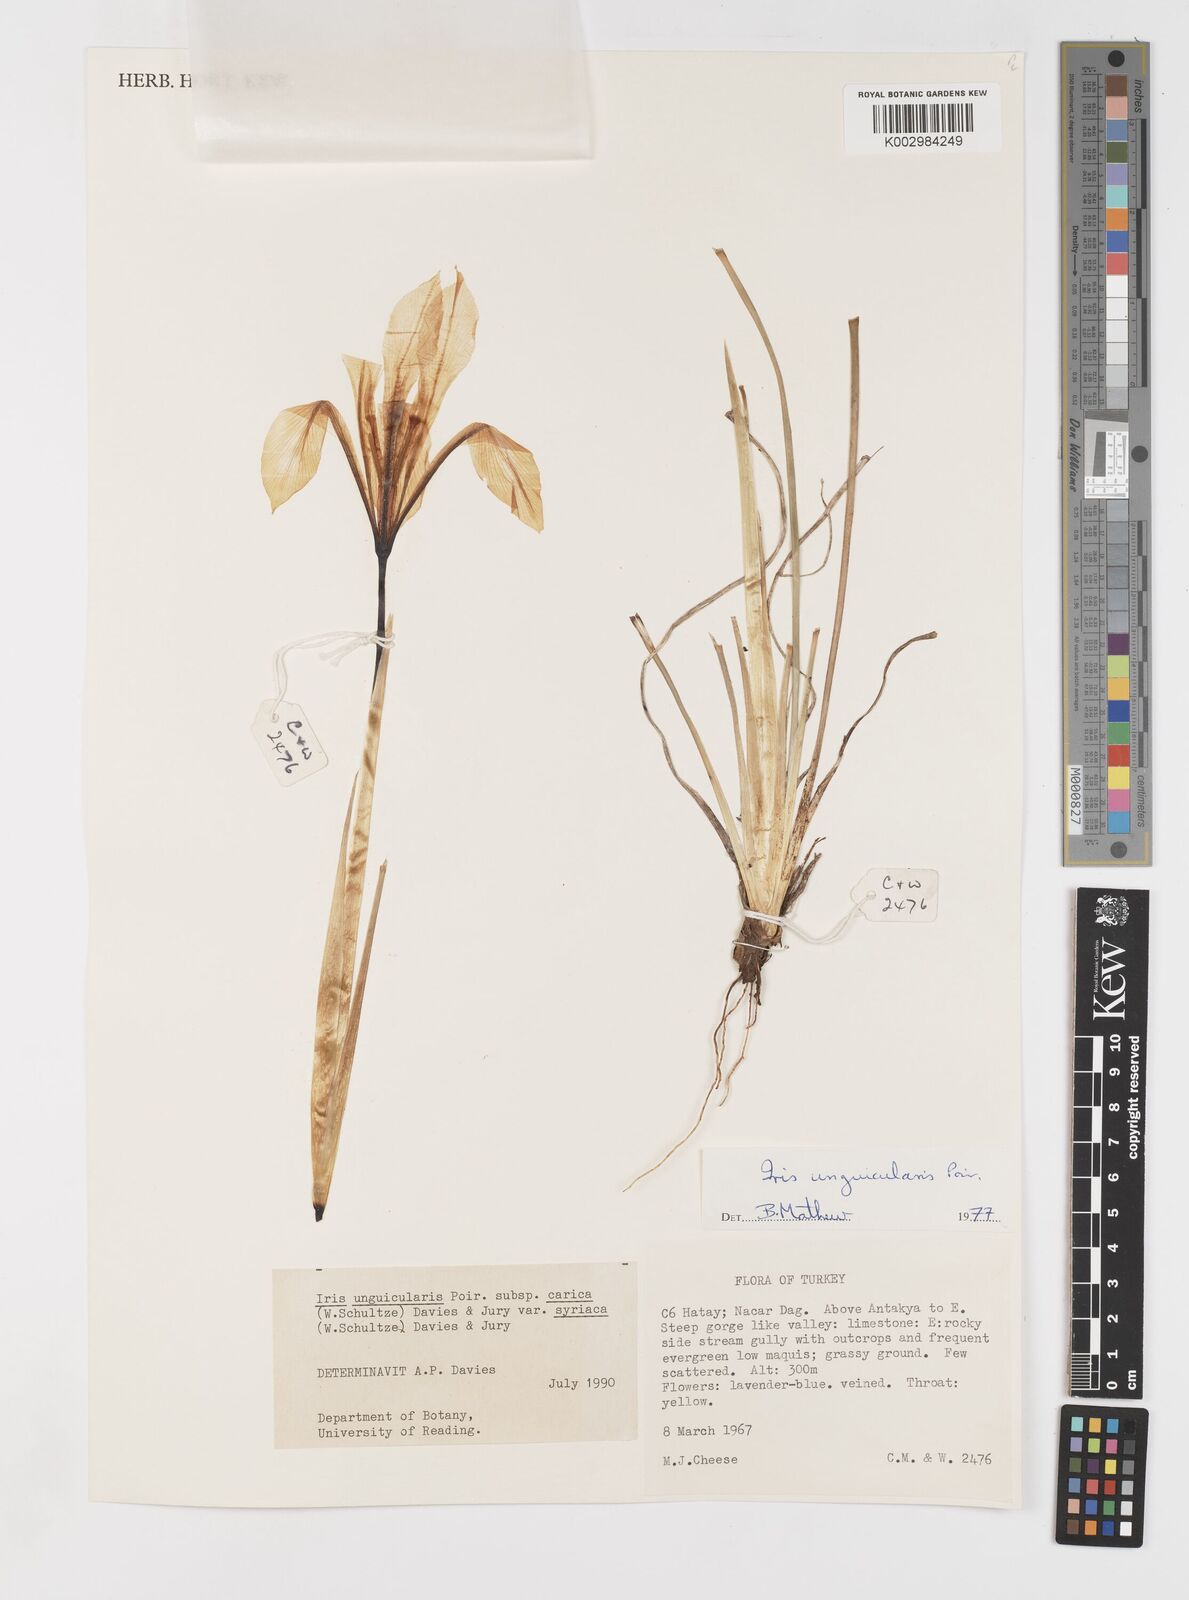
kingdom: Plantae
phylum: Tracheophyta
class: Liliopsida
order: Asparagales
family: Iridaceae
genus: Iris
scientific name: Iris unguicularis
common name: Algerian iris
